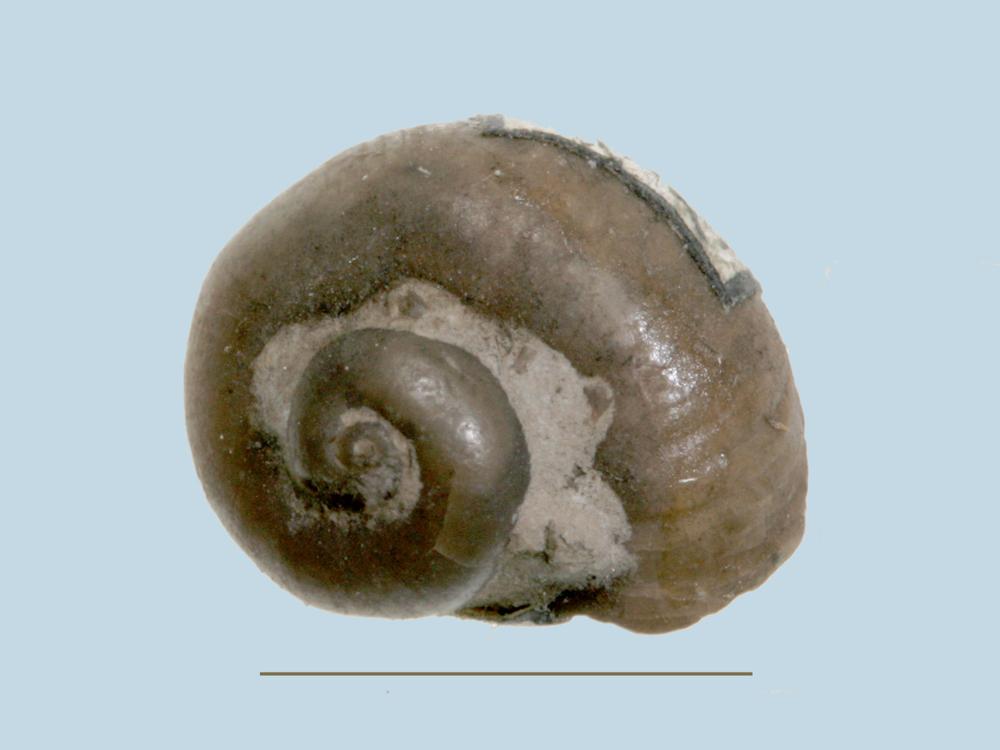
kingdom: Animalia
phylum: Mollusca
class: Gastropoda
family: Platyceratidae
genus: Platyceras
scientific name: Platyceras
